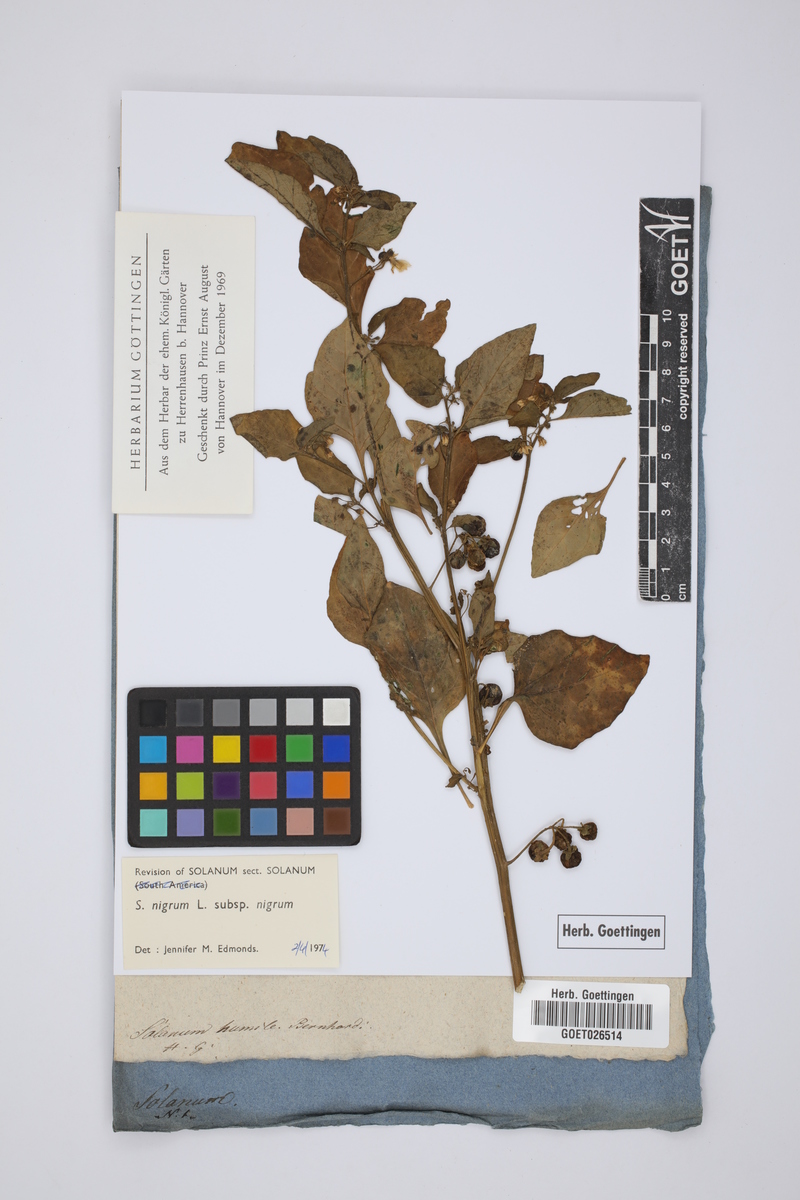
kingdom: Plantae
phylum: Tracheophyta
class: Magnoliopsida
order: Solanales
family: Solanaceae
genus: Solanum
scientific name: Solanum nigrum
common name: Black nightshade
